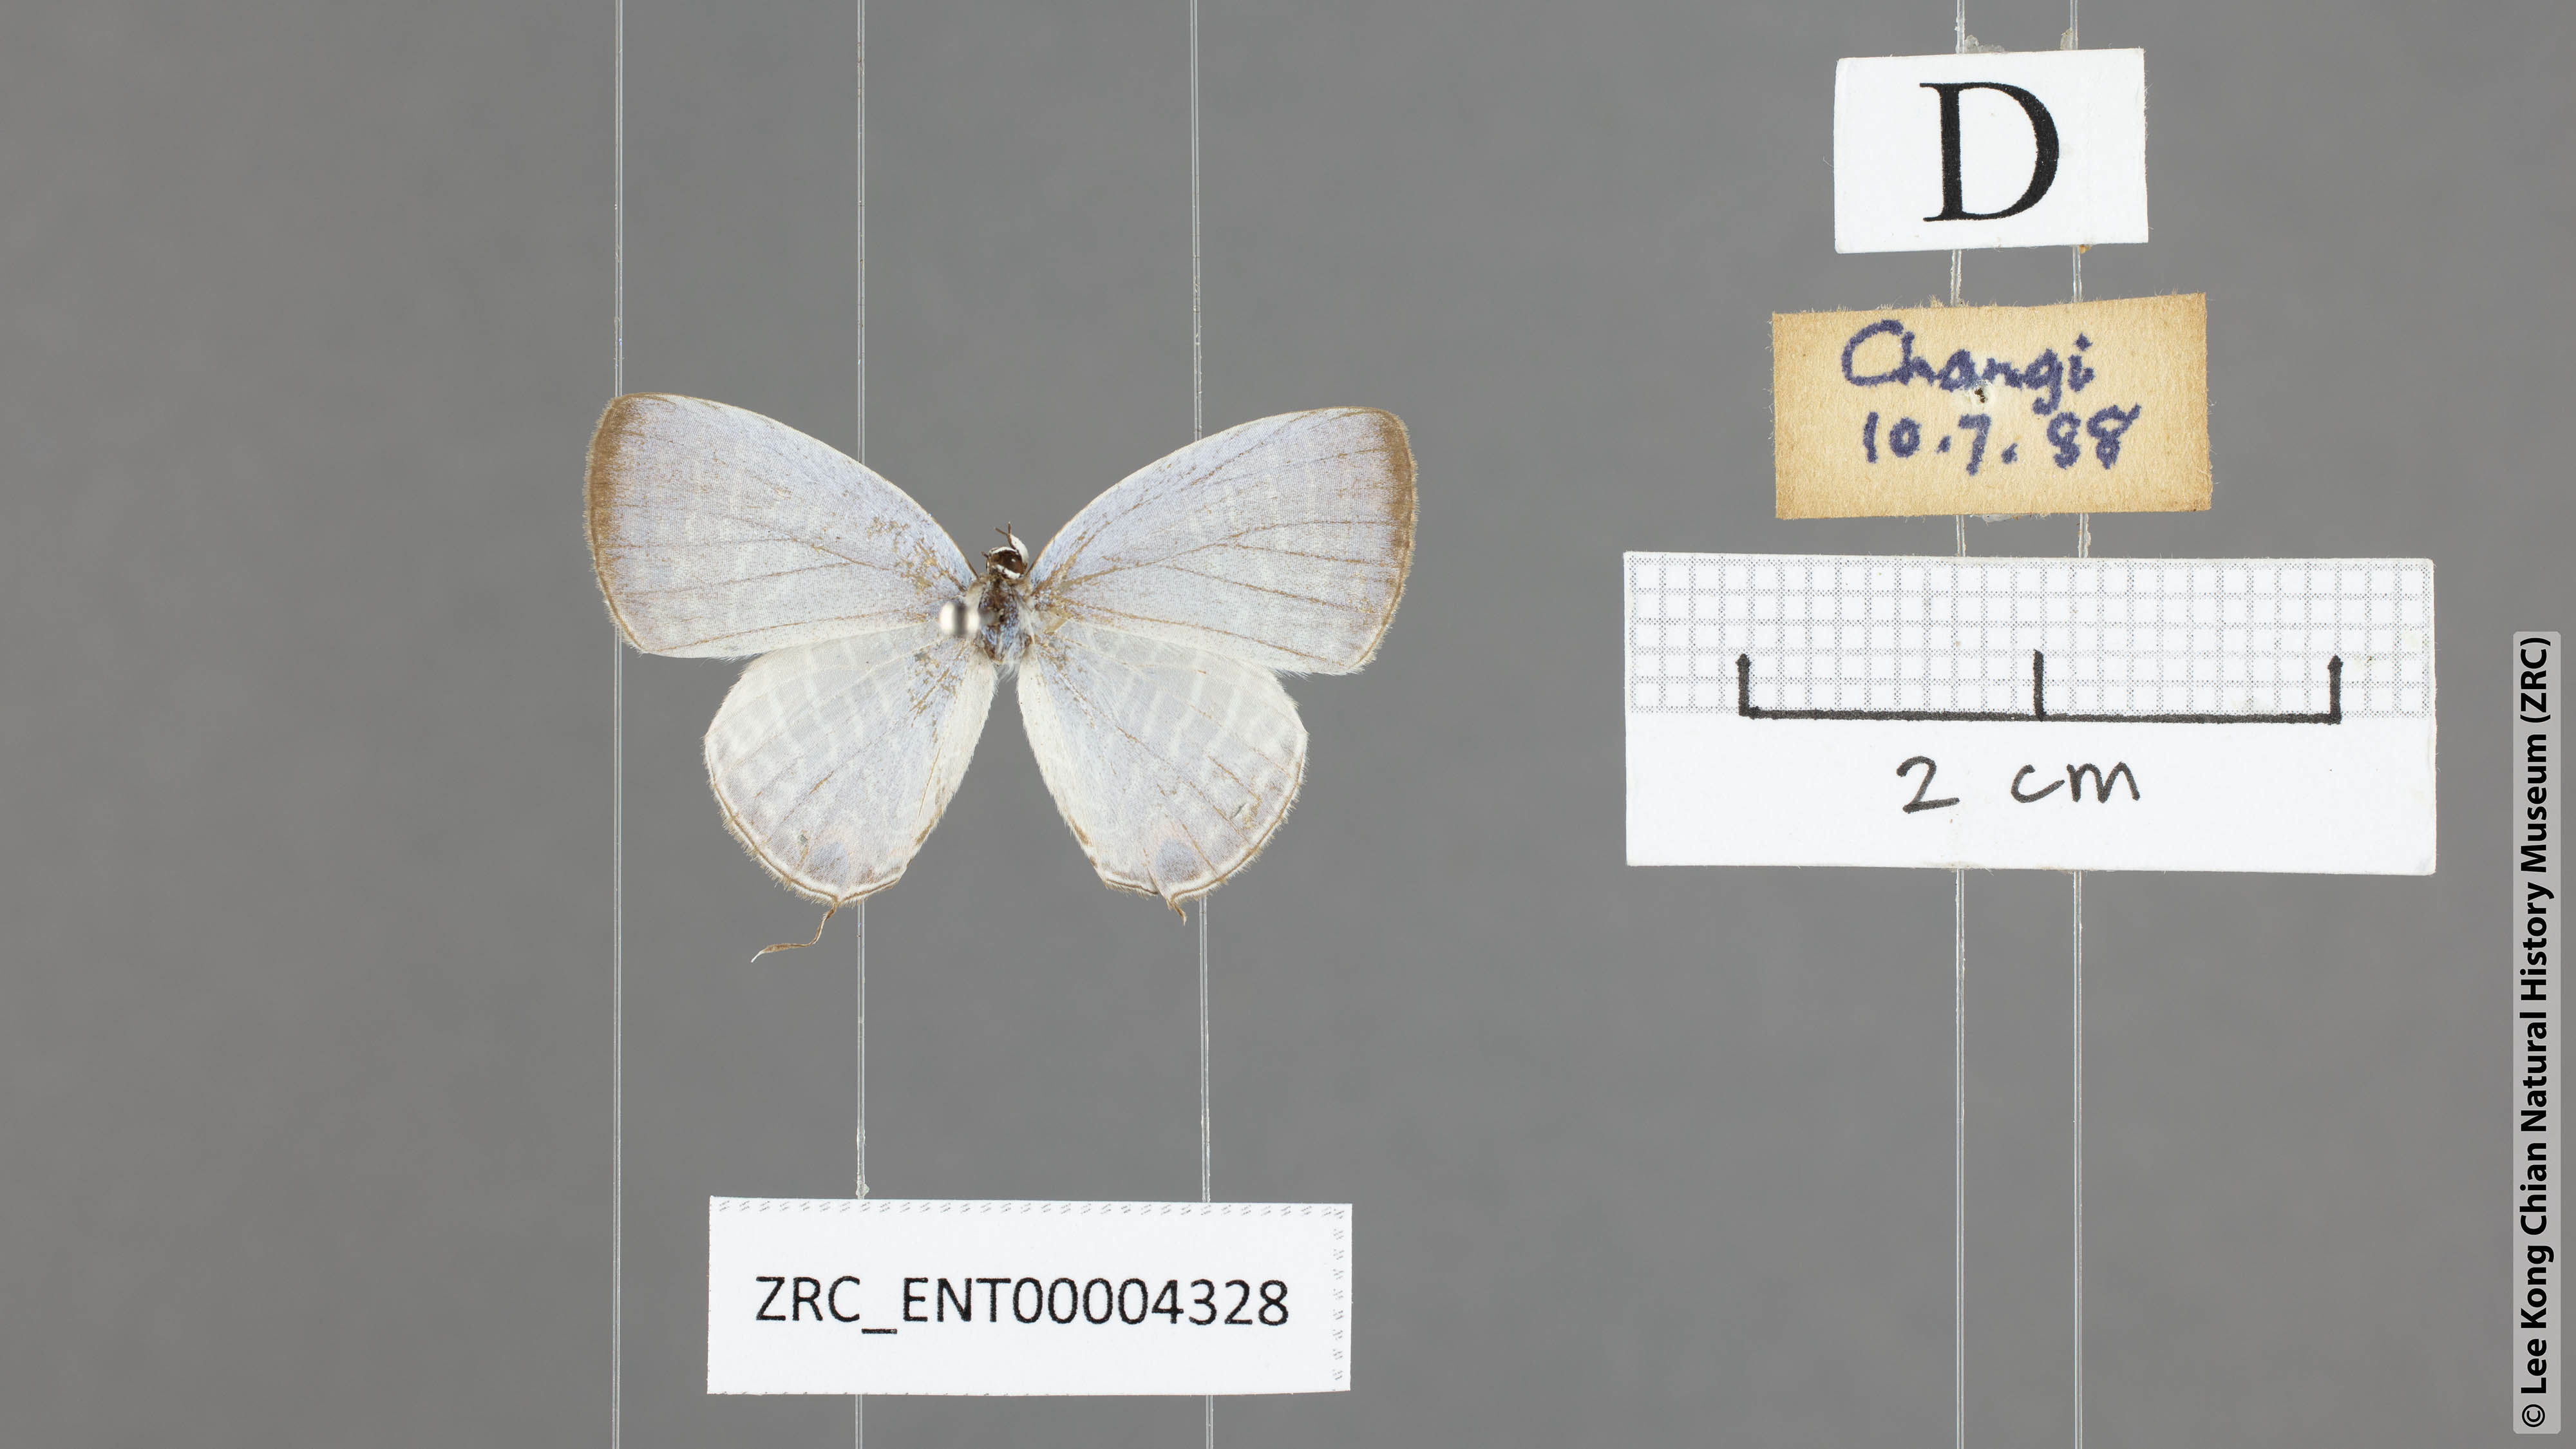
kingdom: Animalia
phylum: Arthropoda
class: Insecta
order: Lepidoptera
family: Lycaenidae
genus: Jamides
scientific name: Jamides celeno
